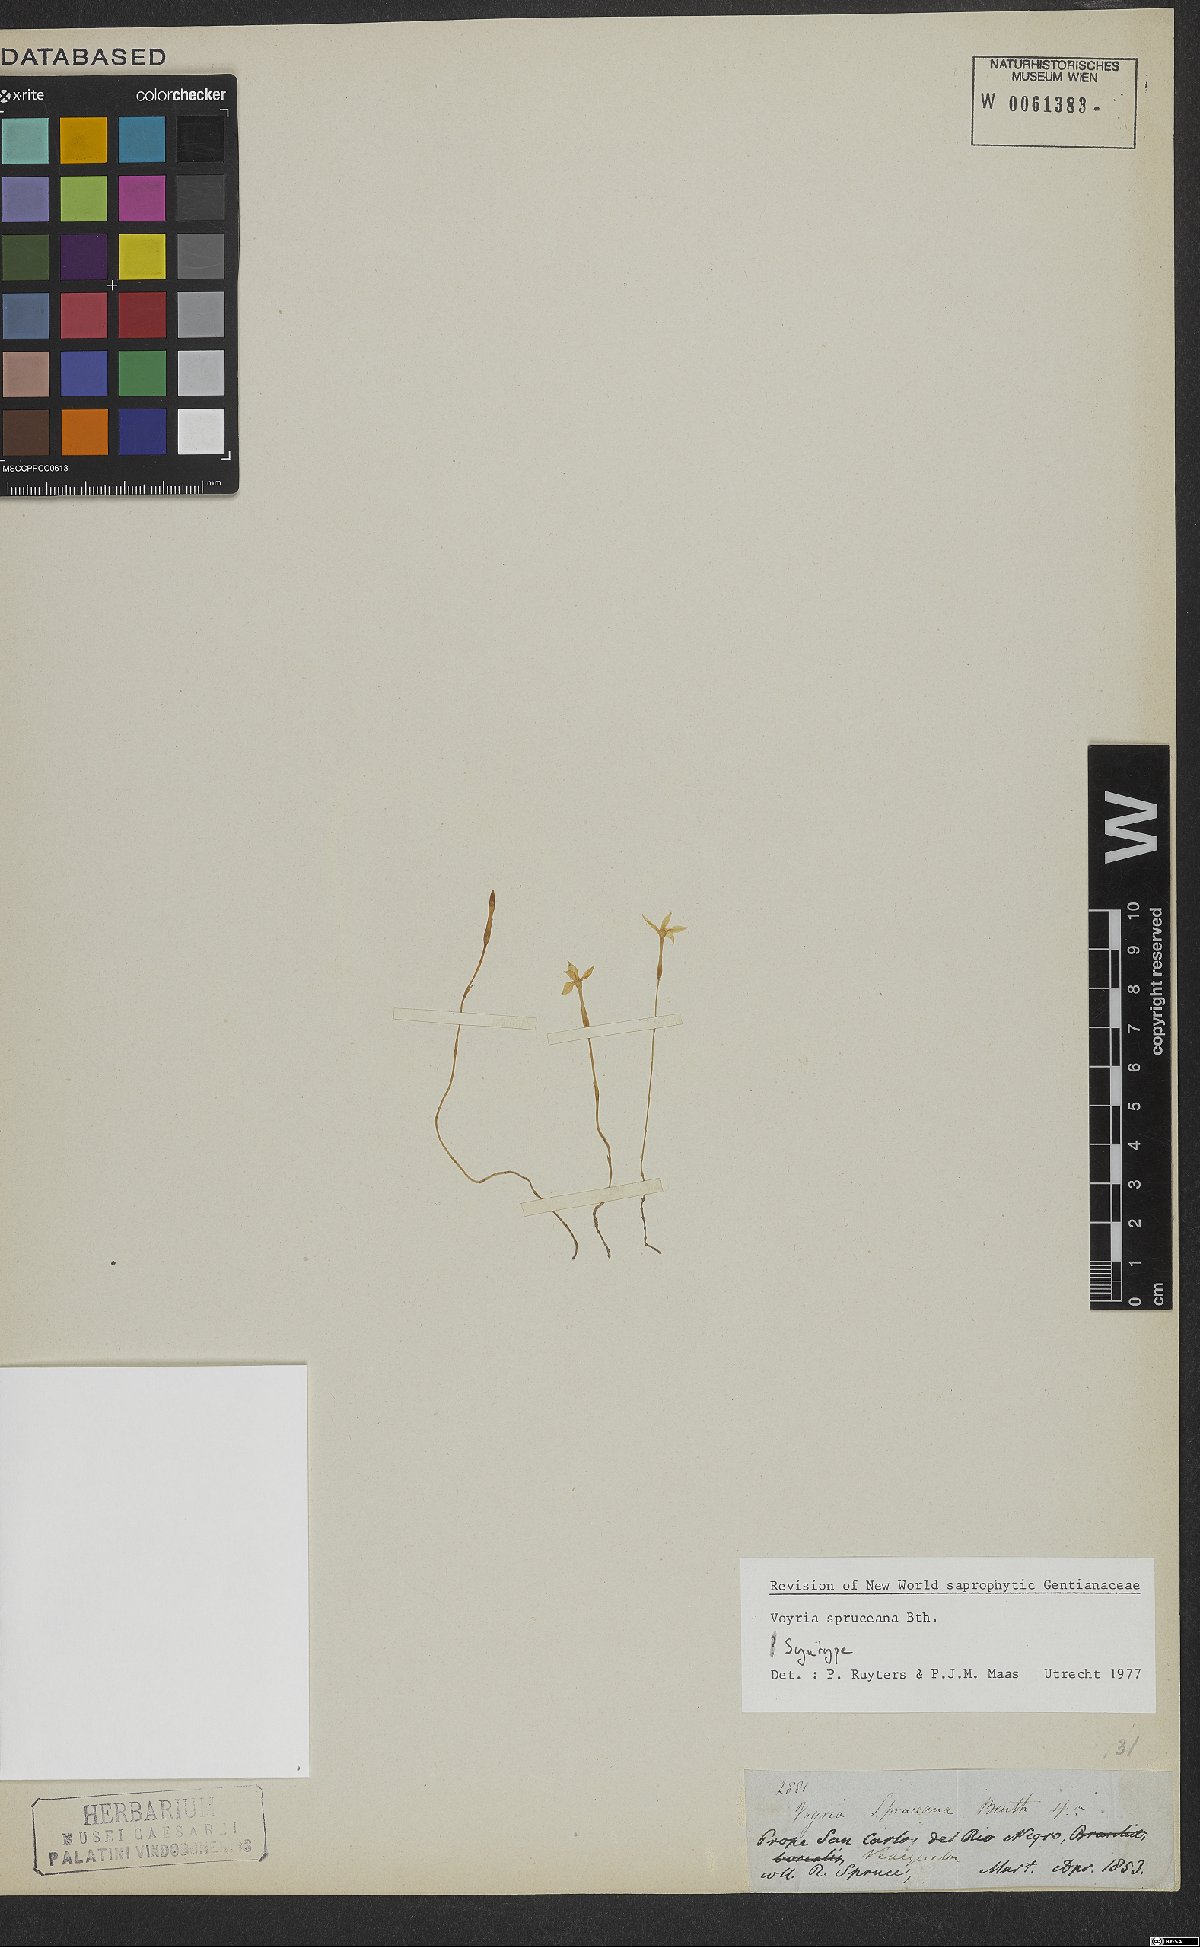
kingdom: Plantae
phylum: Tracheophyta
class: Magnoliopsida
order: Gentianales
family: Gentianaceae
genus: Voyria
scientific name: Voyria spruceana
